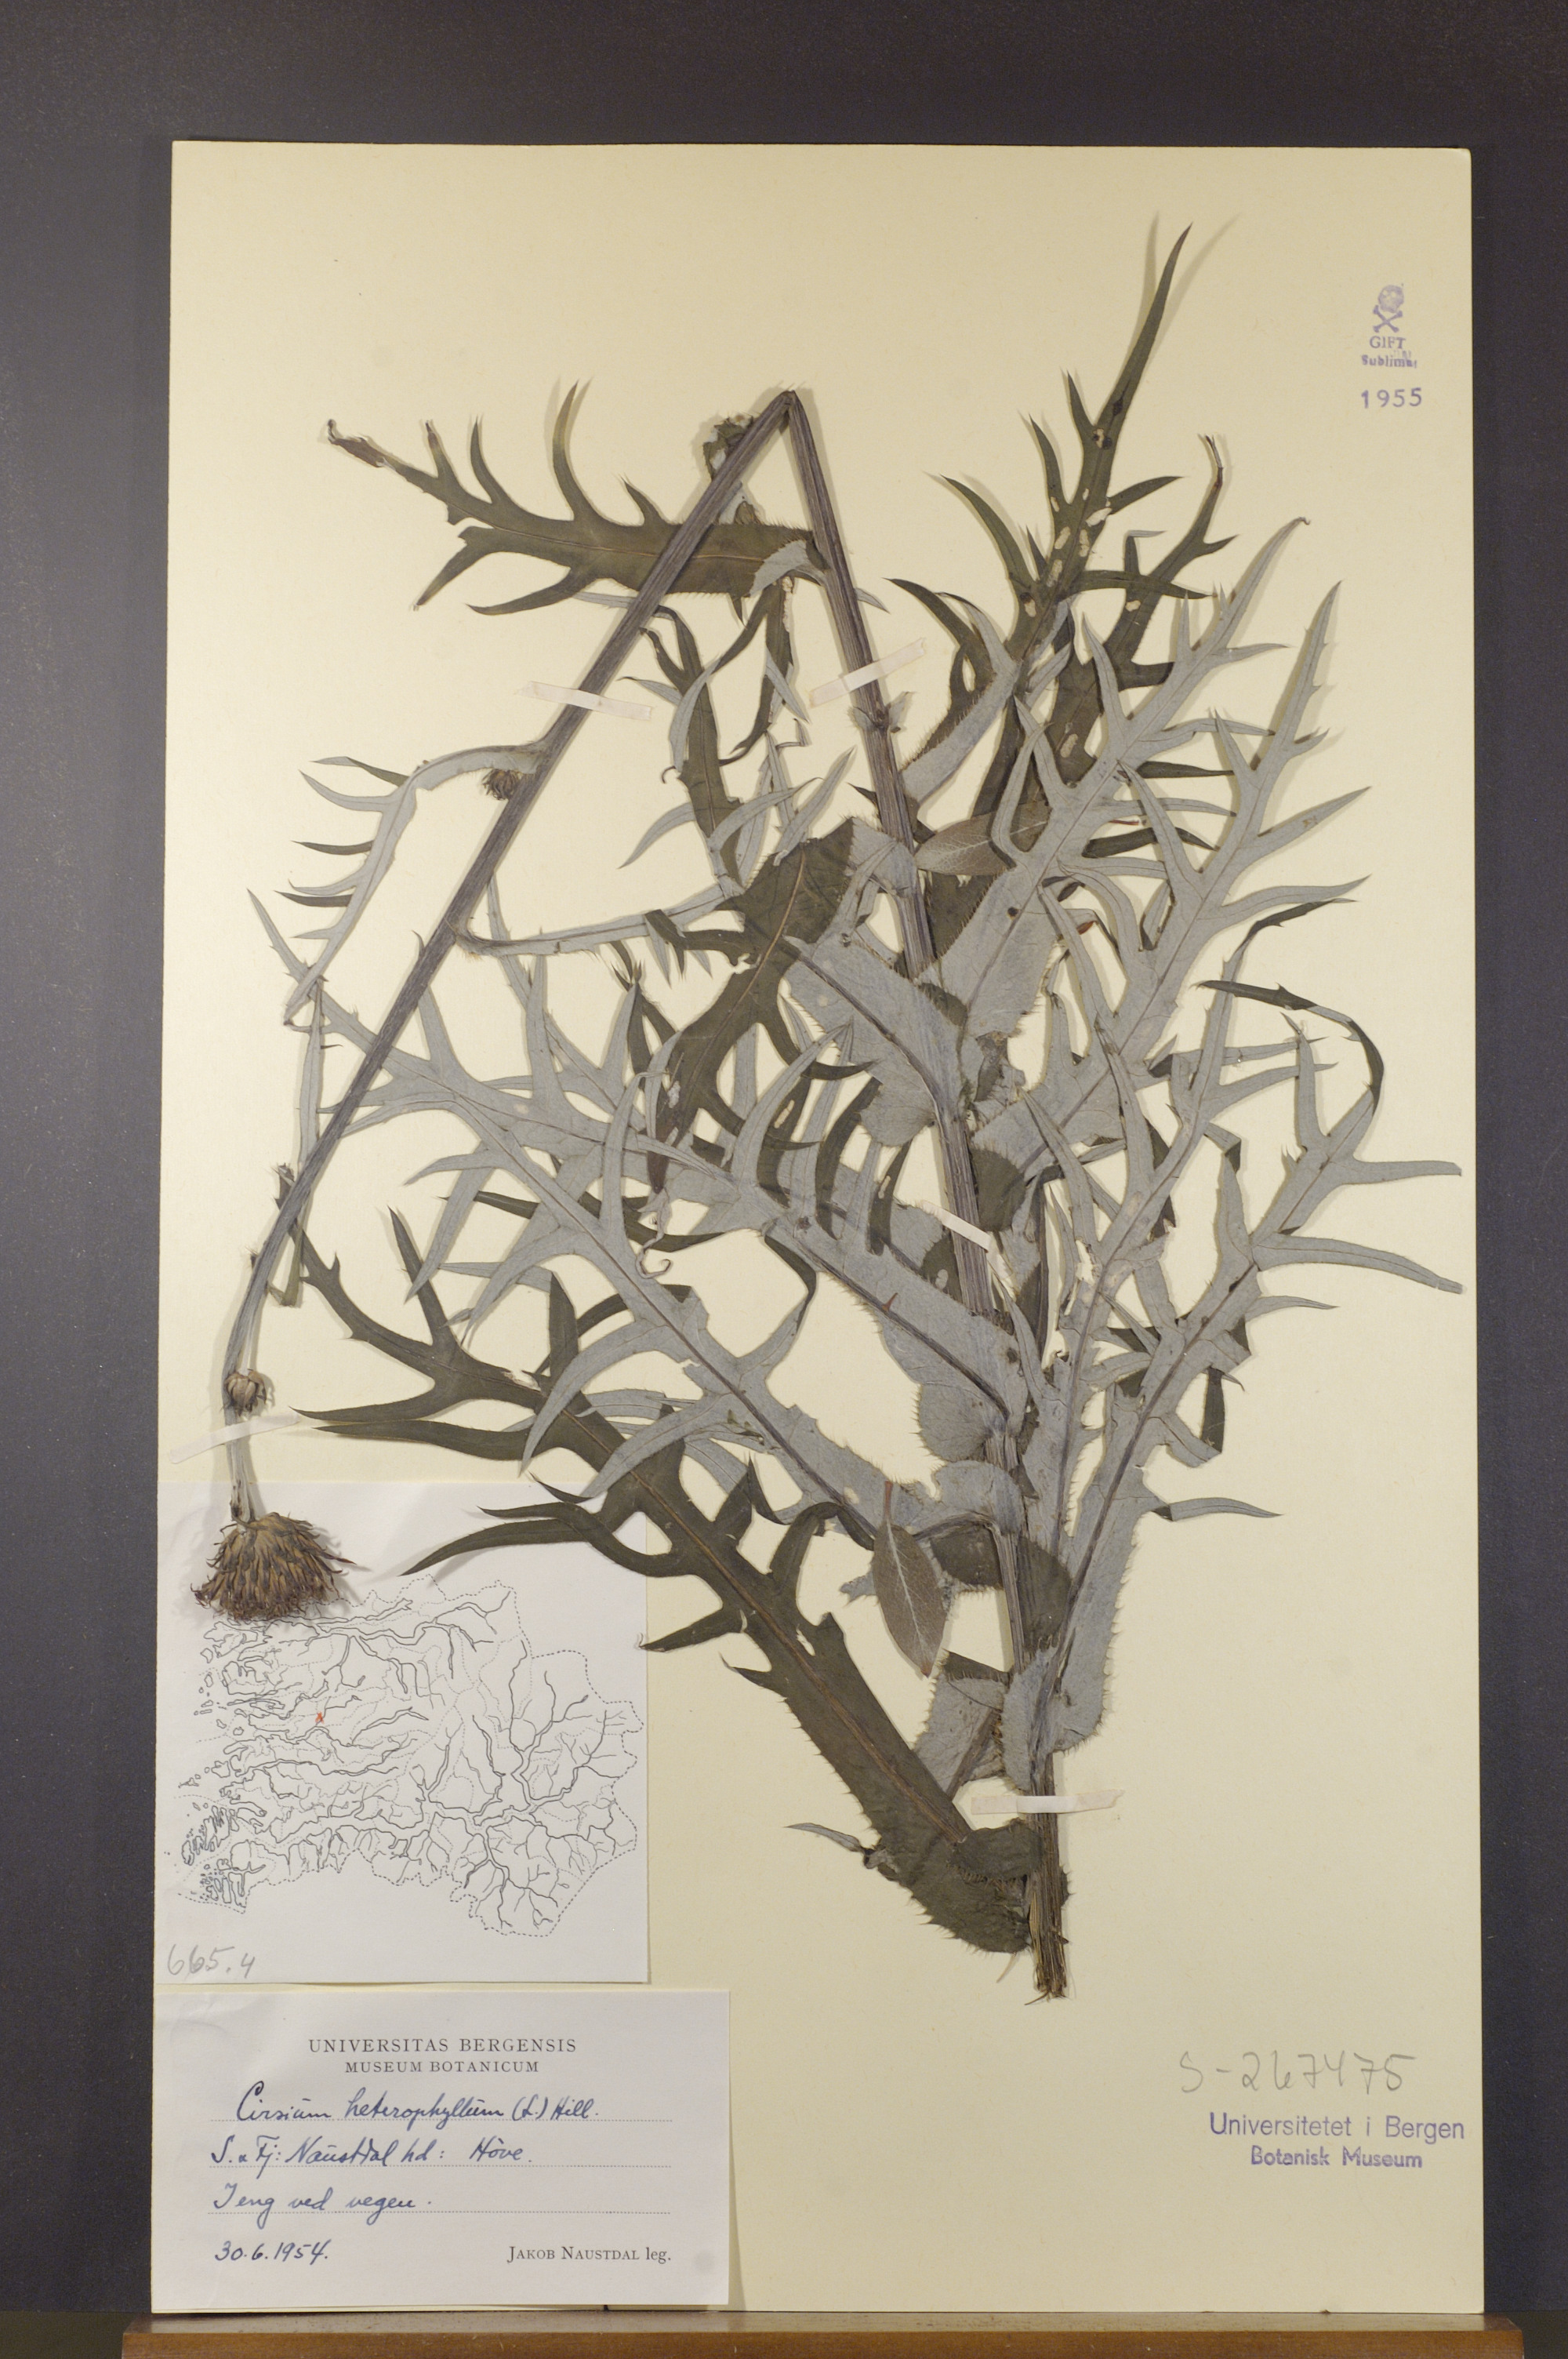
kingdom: Plantae
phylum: Tracheophyta
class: Magnoliopsida
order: Asterales
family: Asteraceae
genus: Cirsium
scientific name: Cirsium heterophyllum
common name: Melancholy thistle
